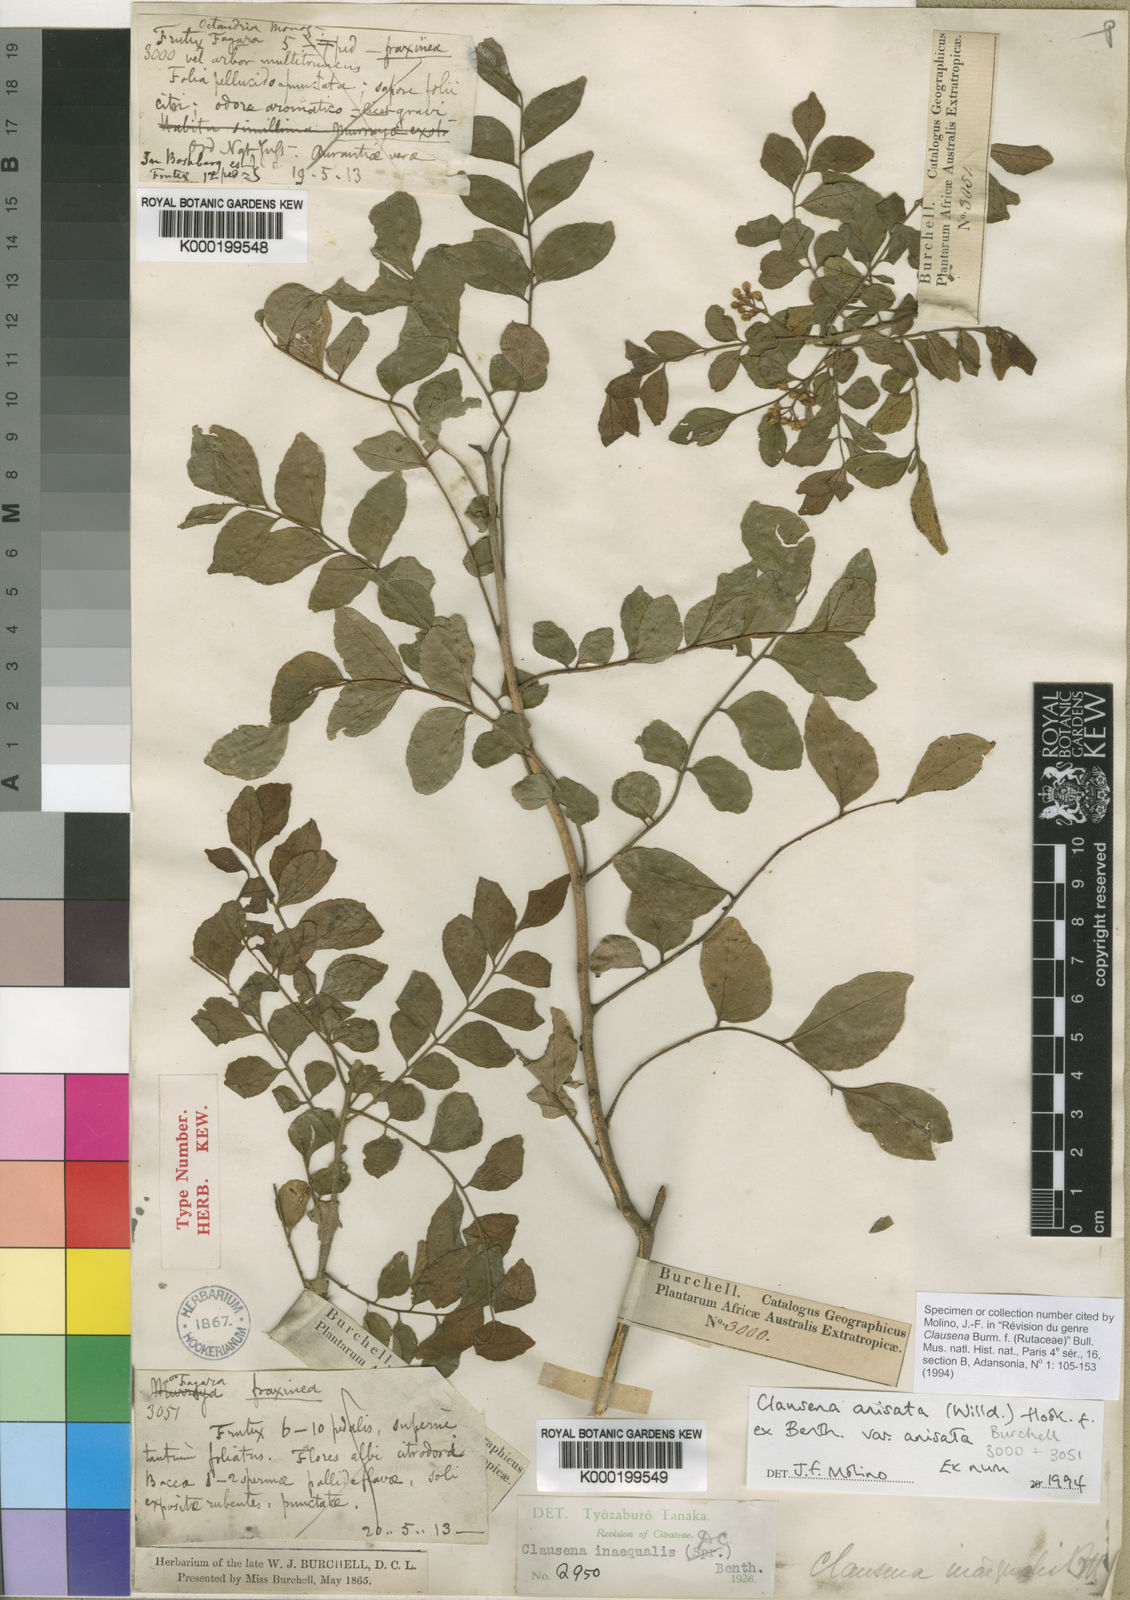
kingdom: Plantae
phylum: Tracheophyta
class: Magnoliopsida
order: Sapindales
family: Rutaceae
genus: Clausena
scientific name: Clausena anisata
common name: Horsewood
